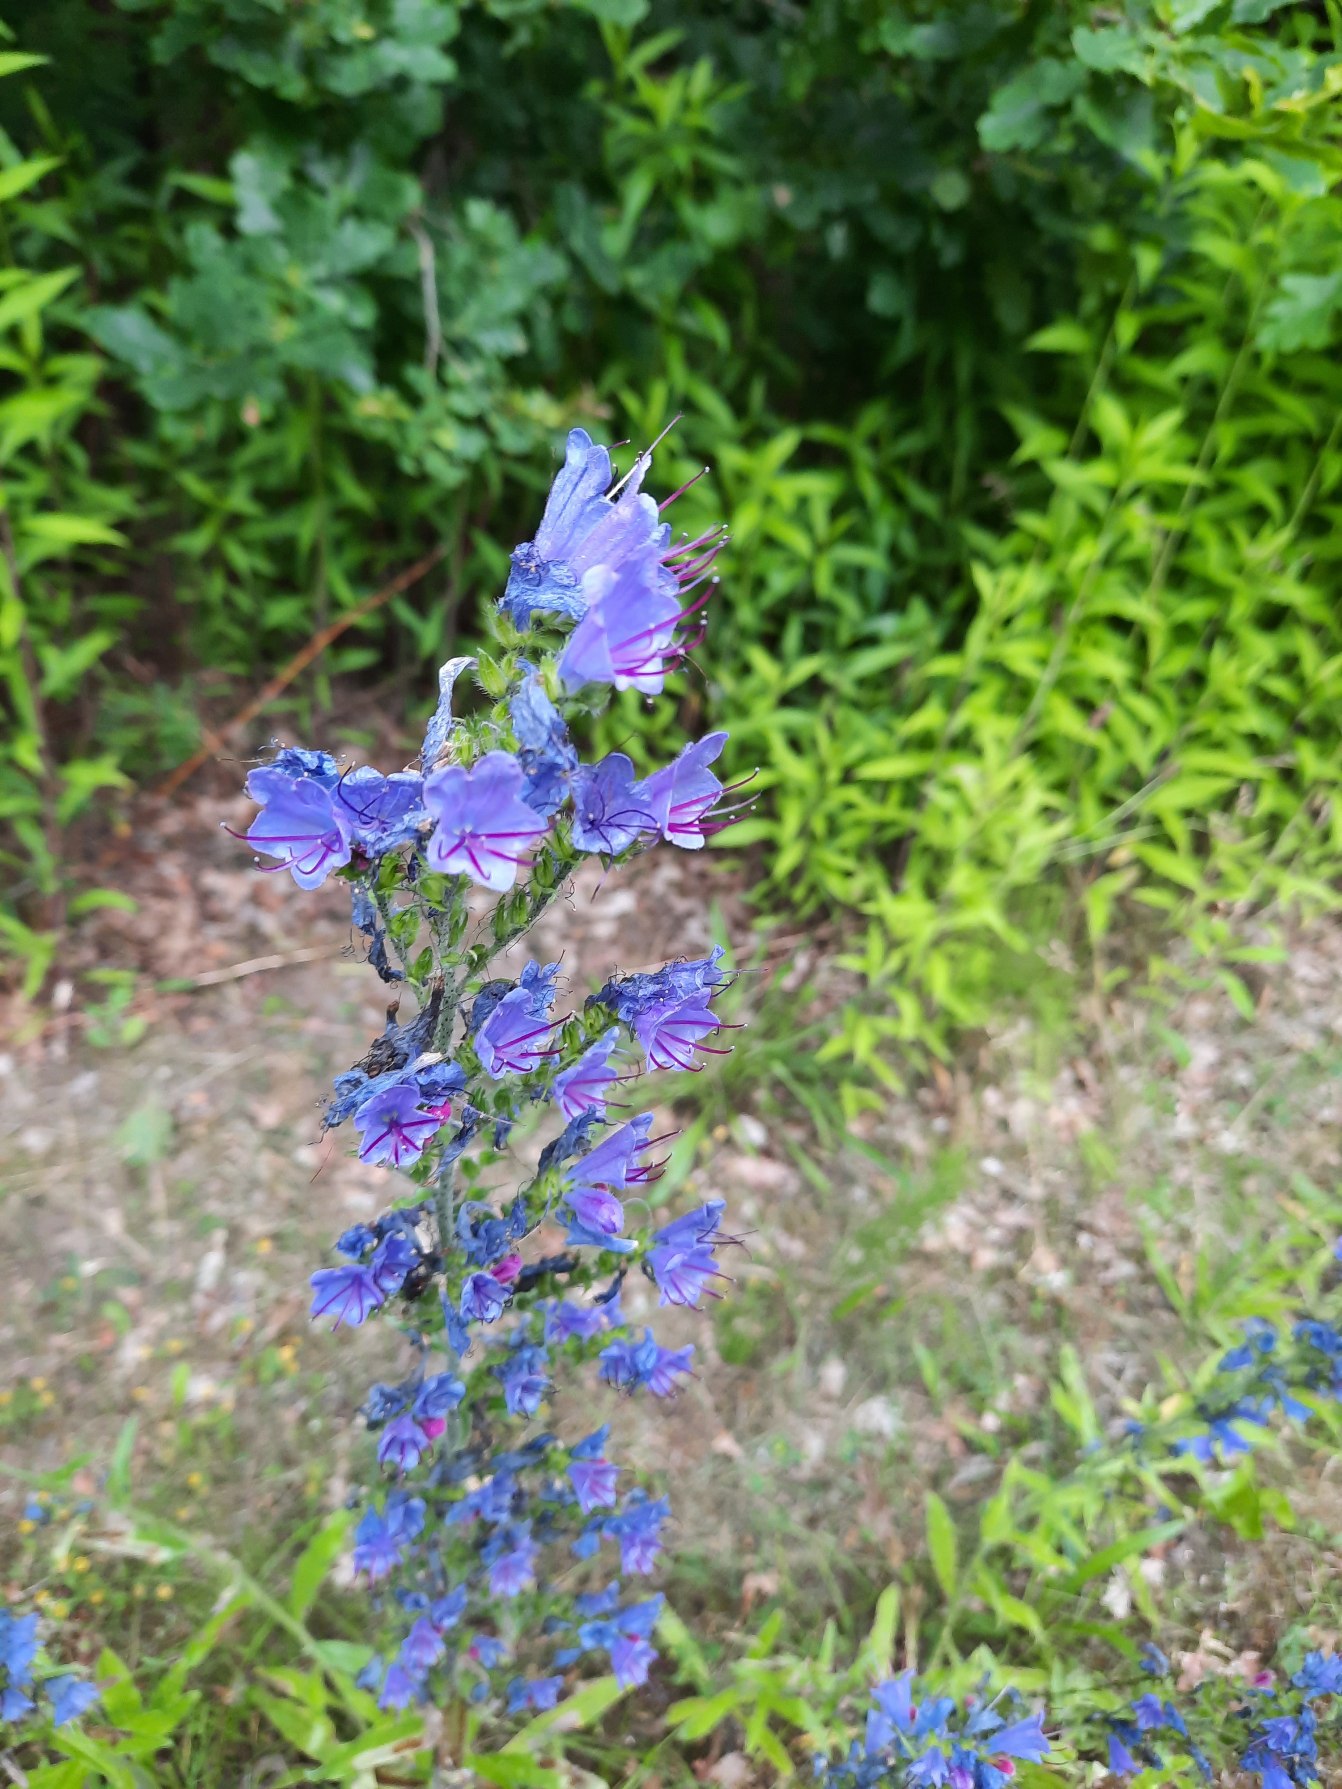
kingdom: Plantae
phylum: Tracheophyta
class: Magnoliopsida
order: Boraginales
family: Boraginaceae
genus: Echium
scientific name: Echium vulgare
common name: Slangehoved
